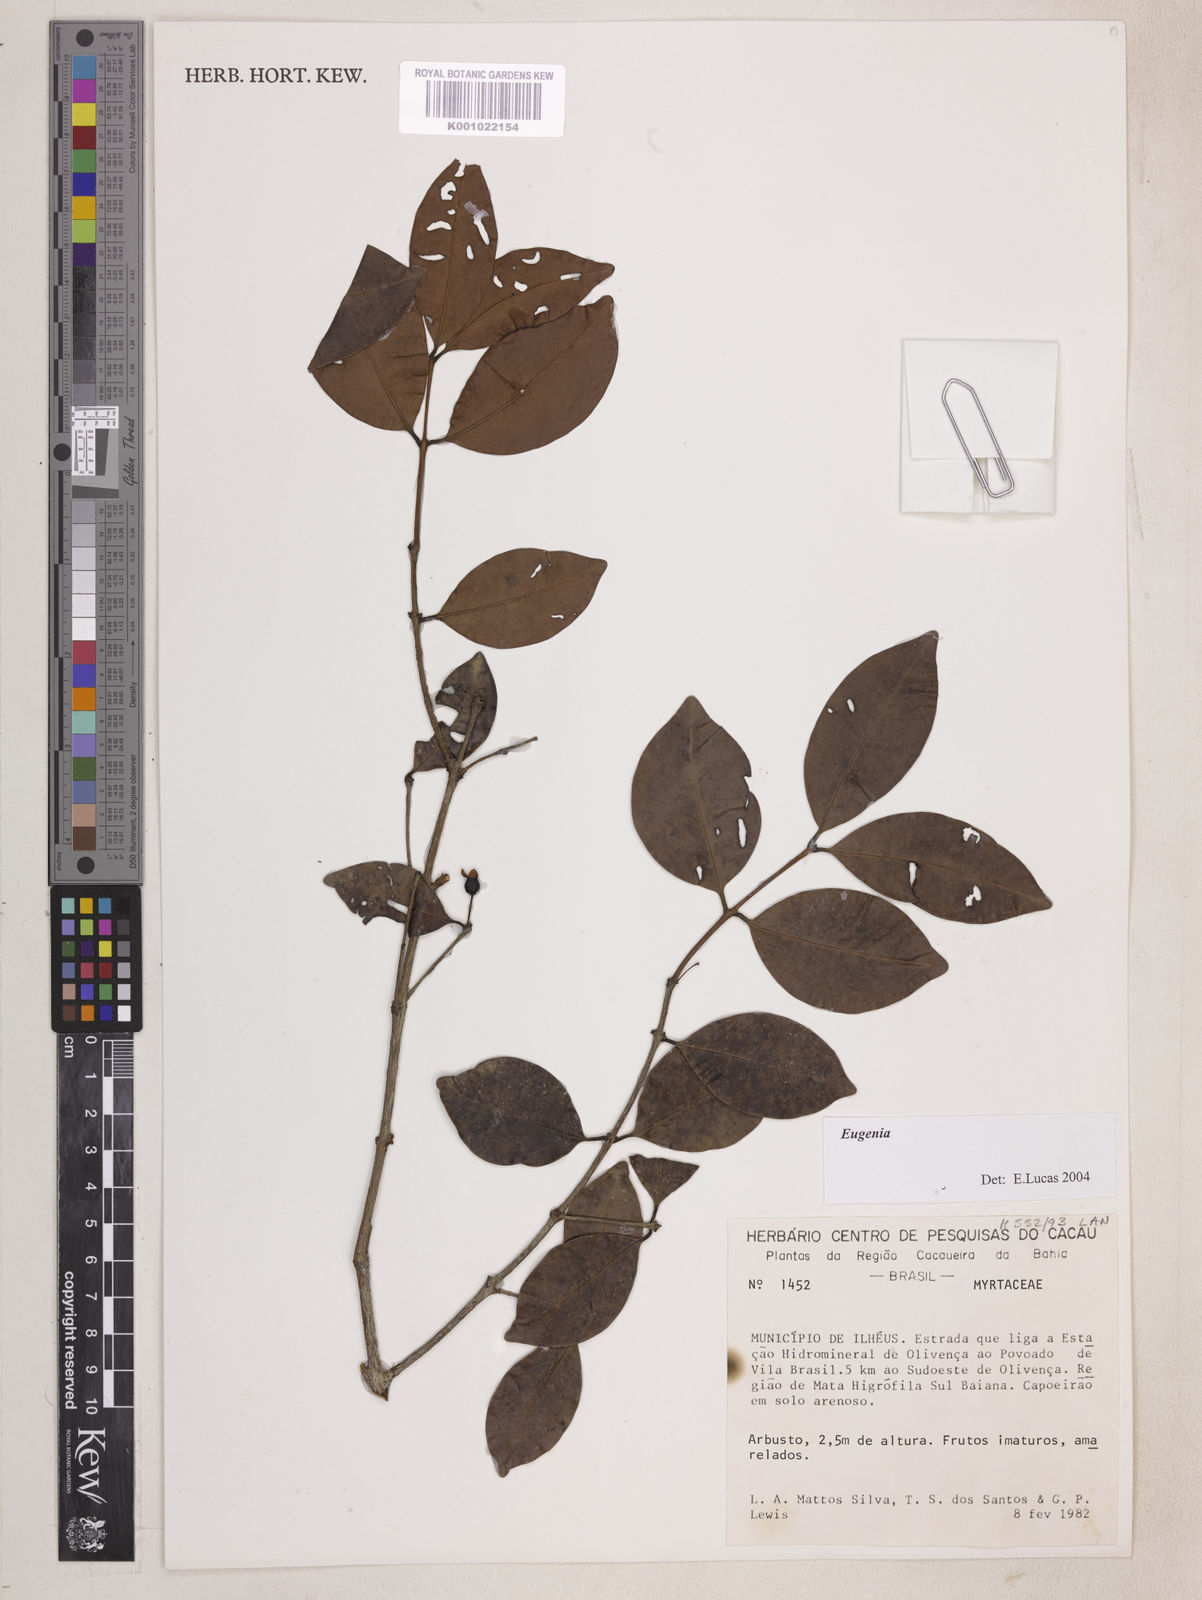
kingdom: Plantae
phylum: Tracheophyta
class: Magnoliopsida
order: Myrtales
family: Myrtaceae
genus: Eugenia
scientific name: Eugenia punicifolia
